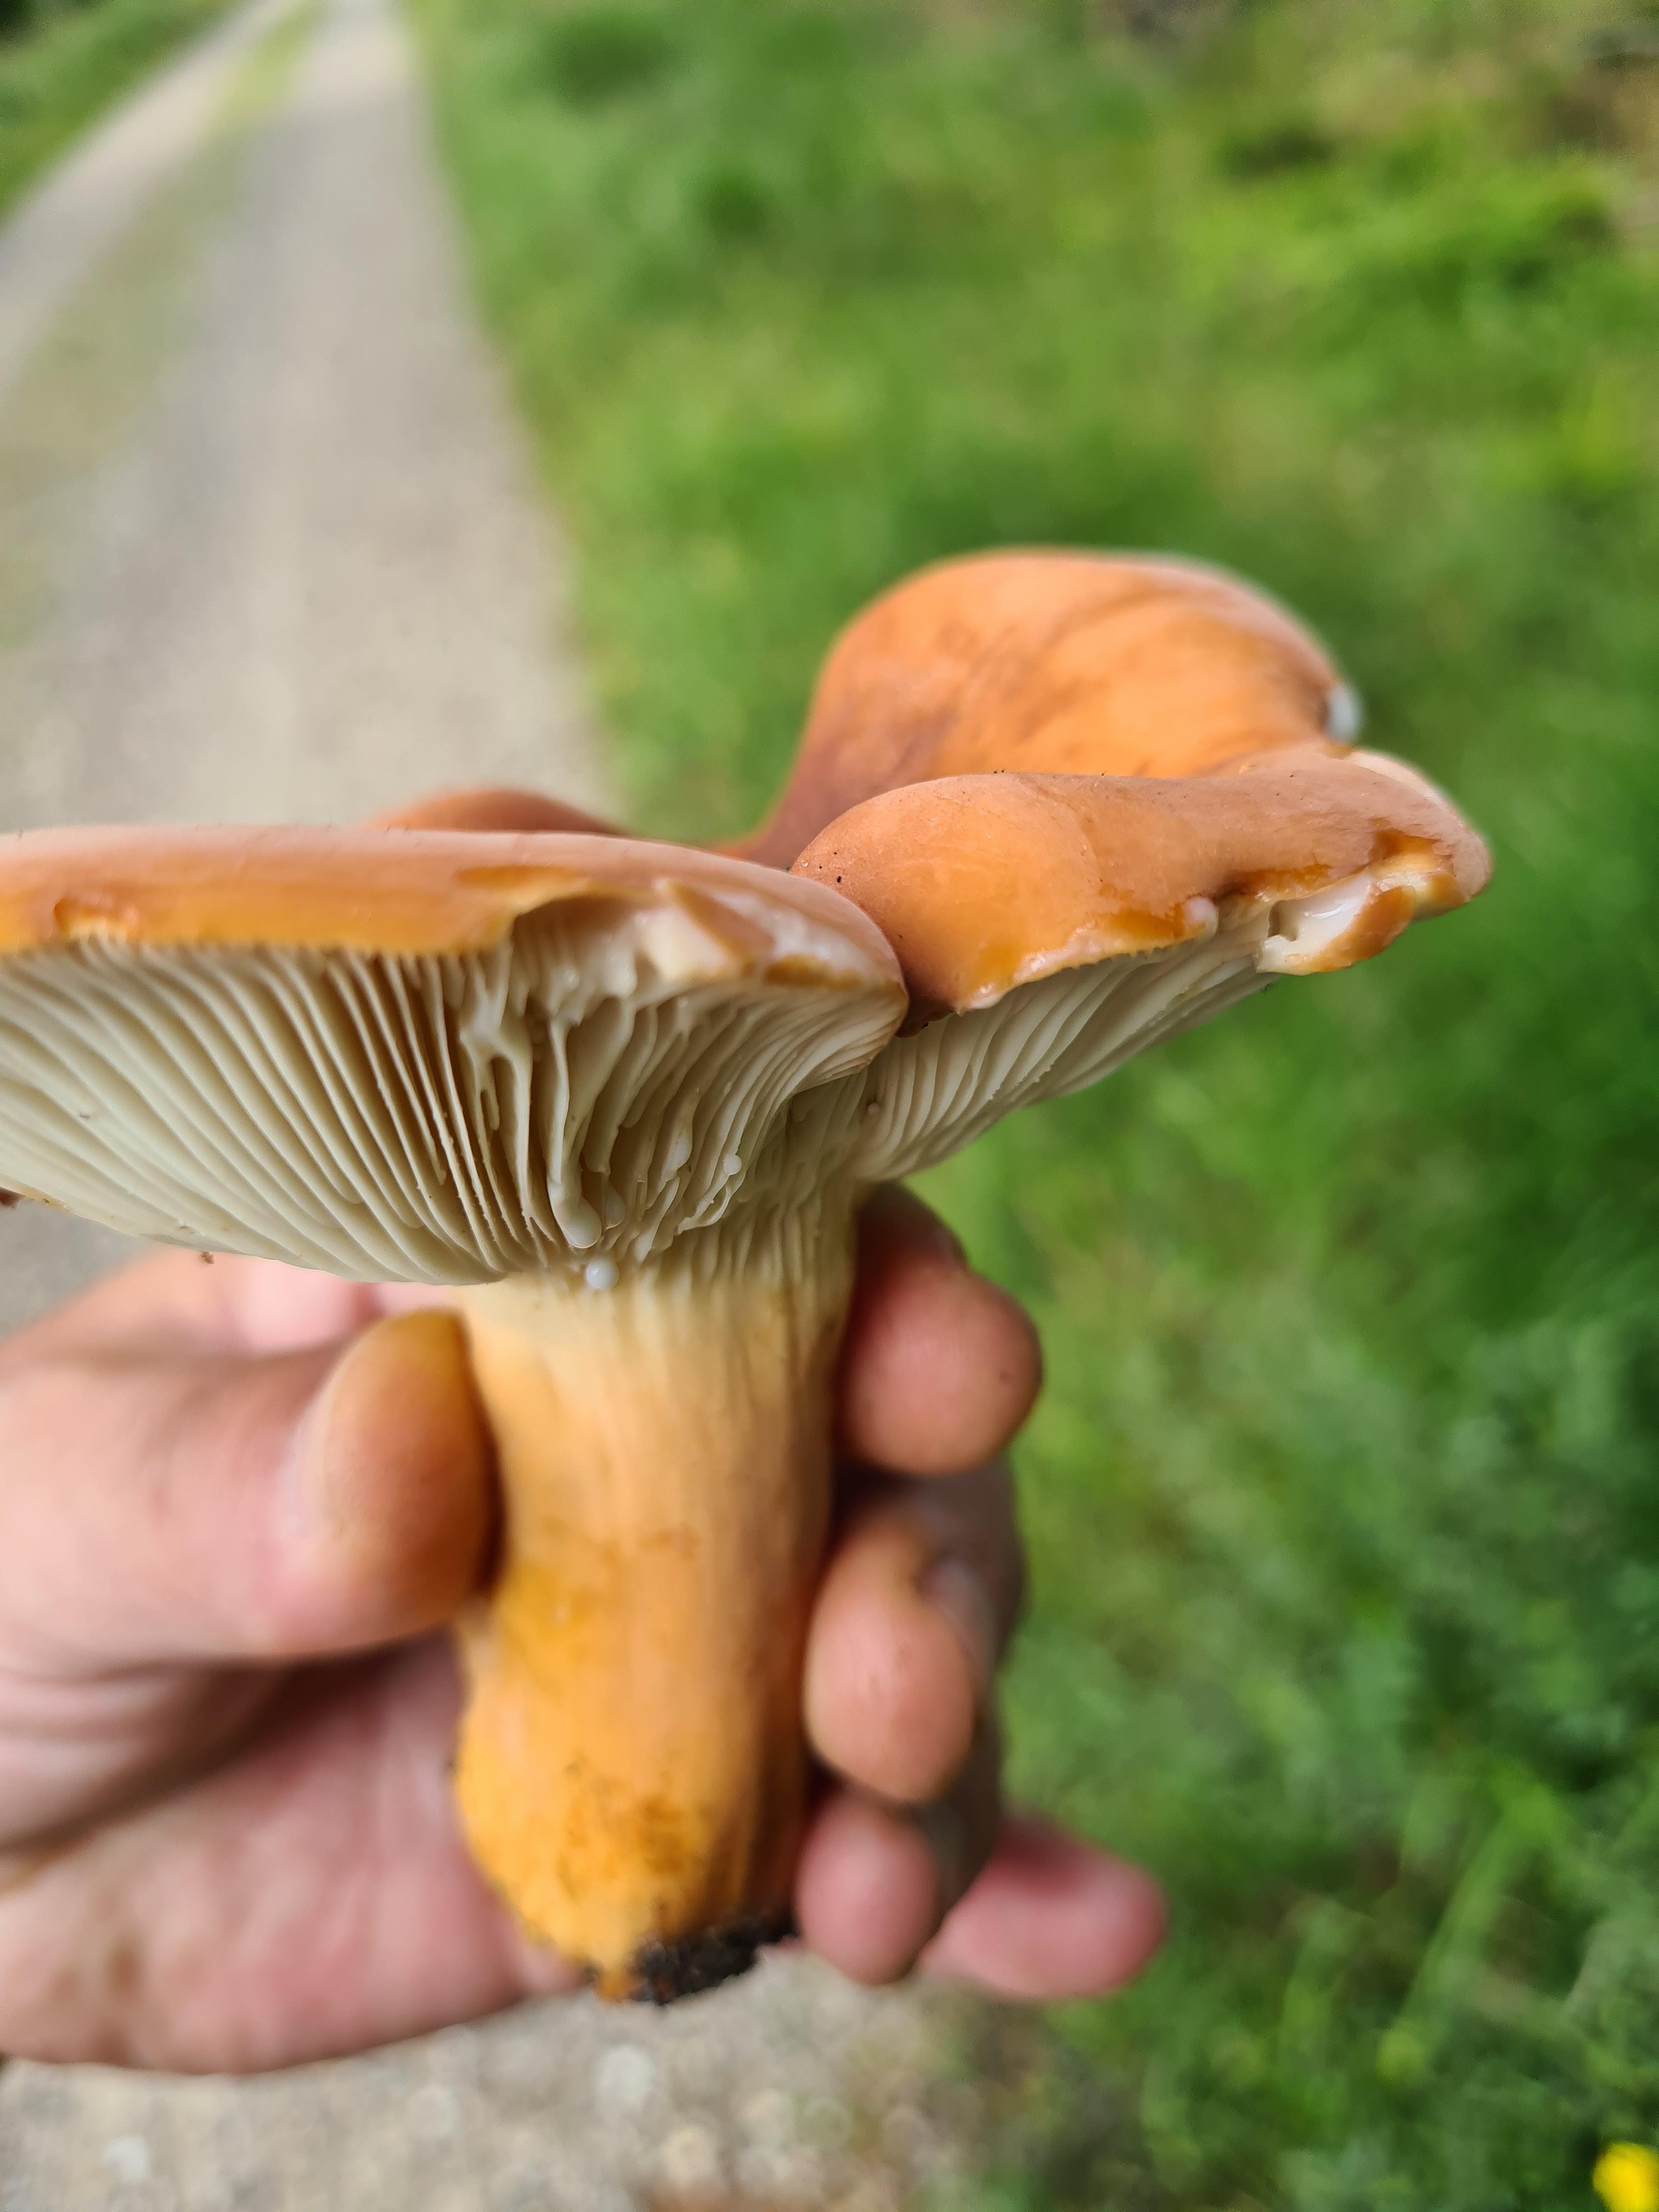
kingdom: Fungi
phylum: Basidiomycota
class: Agaricomycetes
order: Russulales
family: Russulaceae
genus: Lactifluus
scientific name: Lactifluus volemus
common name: spiselig mælkehat
